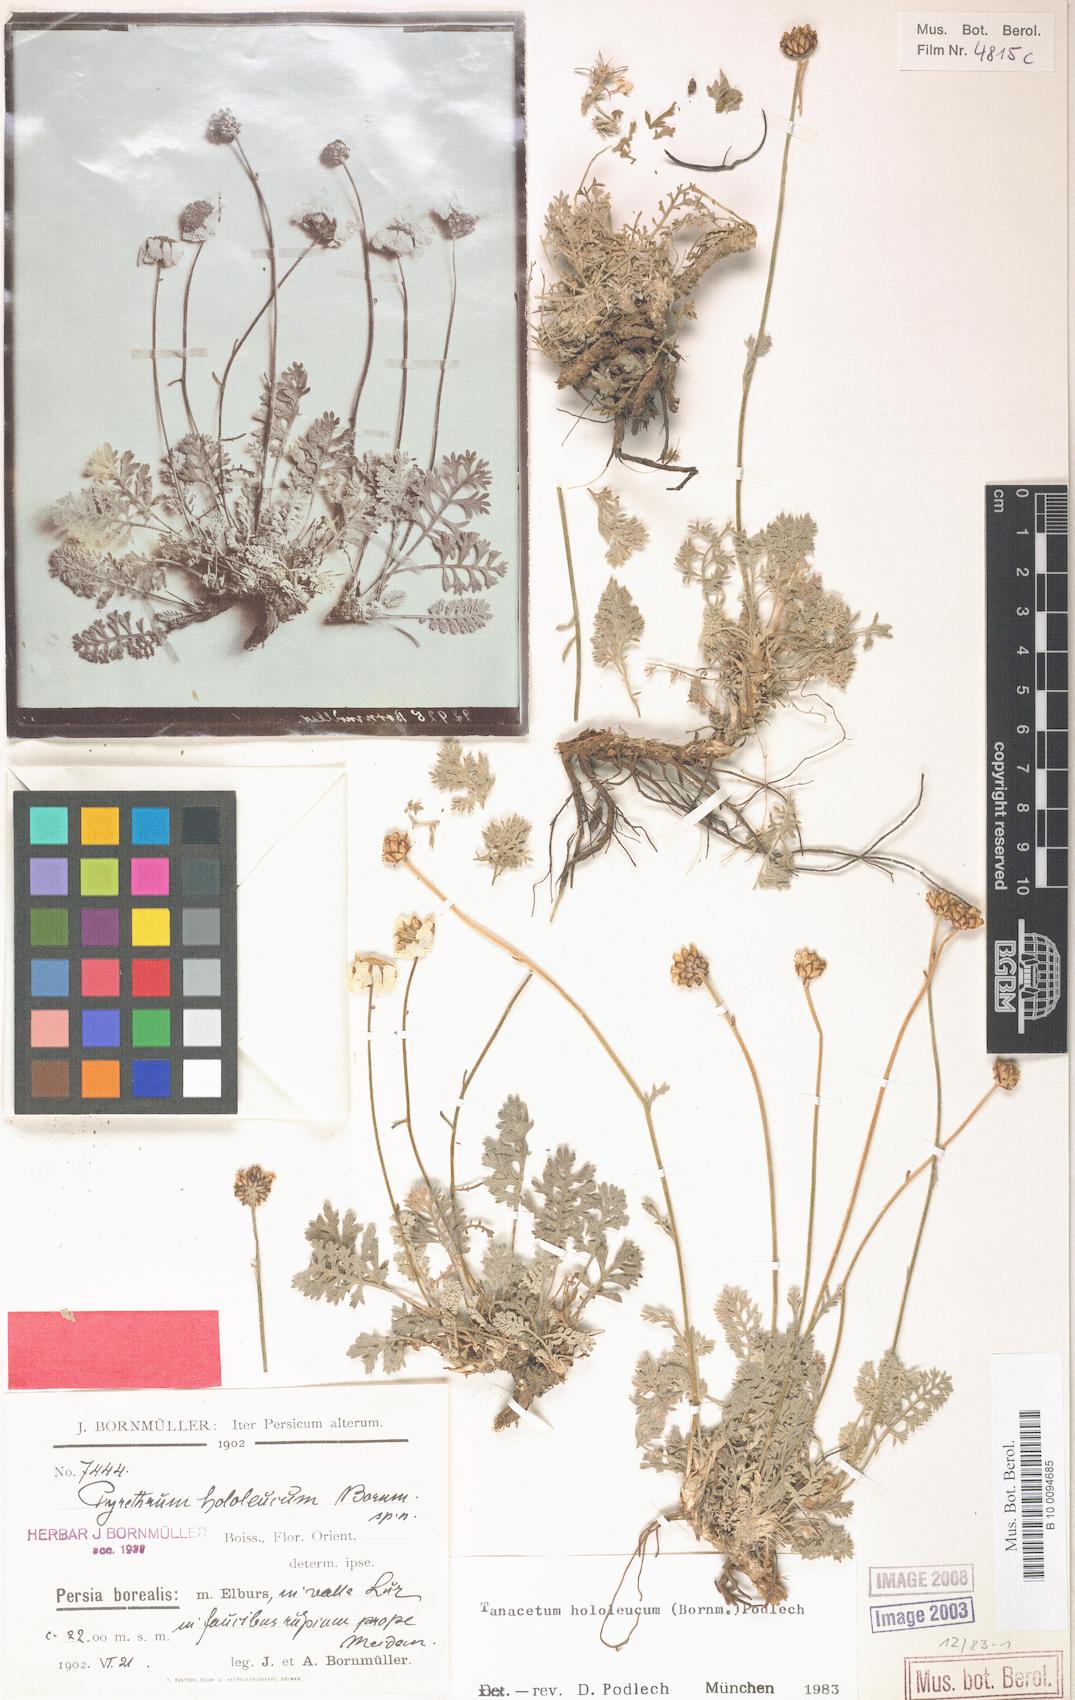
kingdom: Plantae
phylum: Tracheophyta
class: Magnoliopsida
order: Asterales
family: Asteraceae
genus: Tanacetum
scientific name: Tanacetum hololeucum
